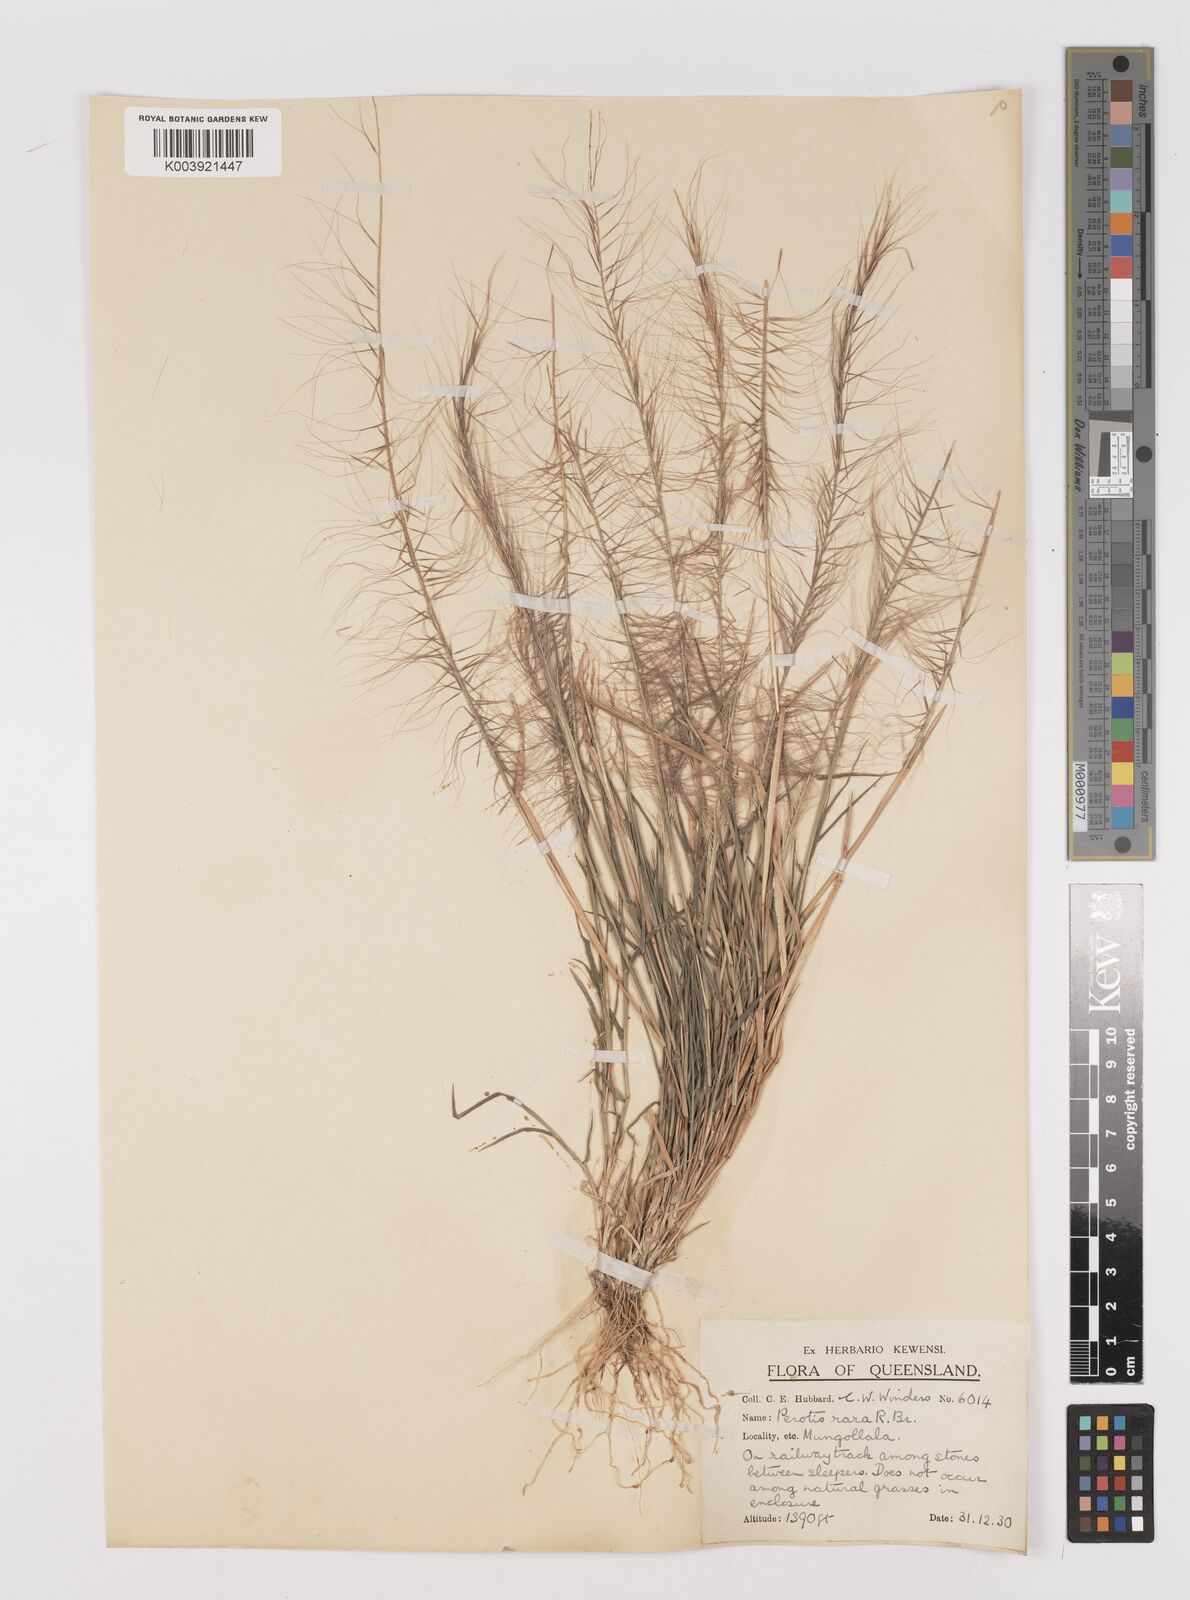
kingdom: Plantae
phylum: Tracheophyta
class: Liliopsida
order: Poales
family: Poaceae
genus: Perotis
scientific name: Perotis rara
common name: Comet grass
